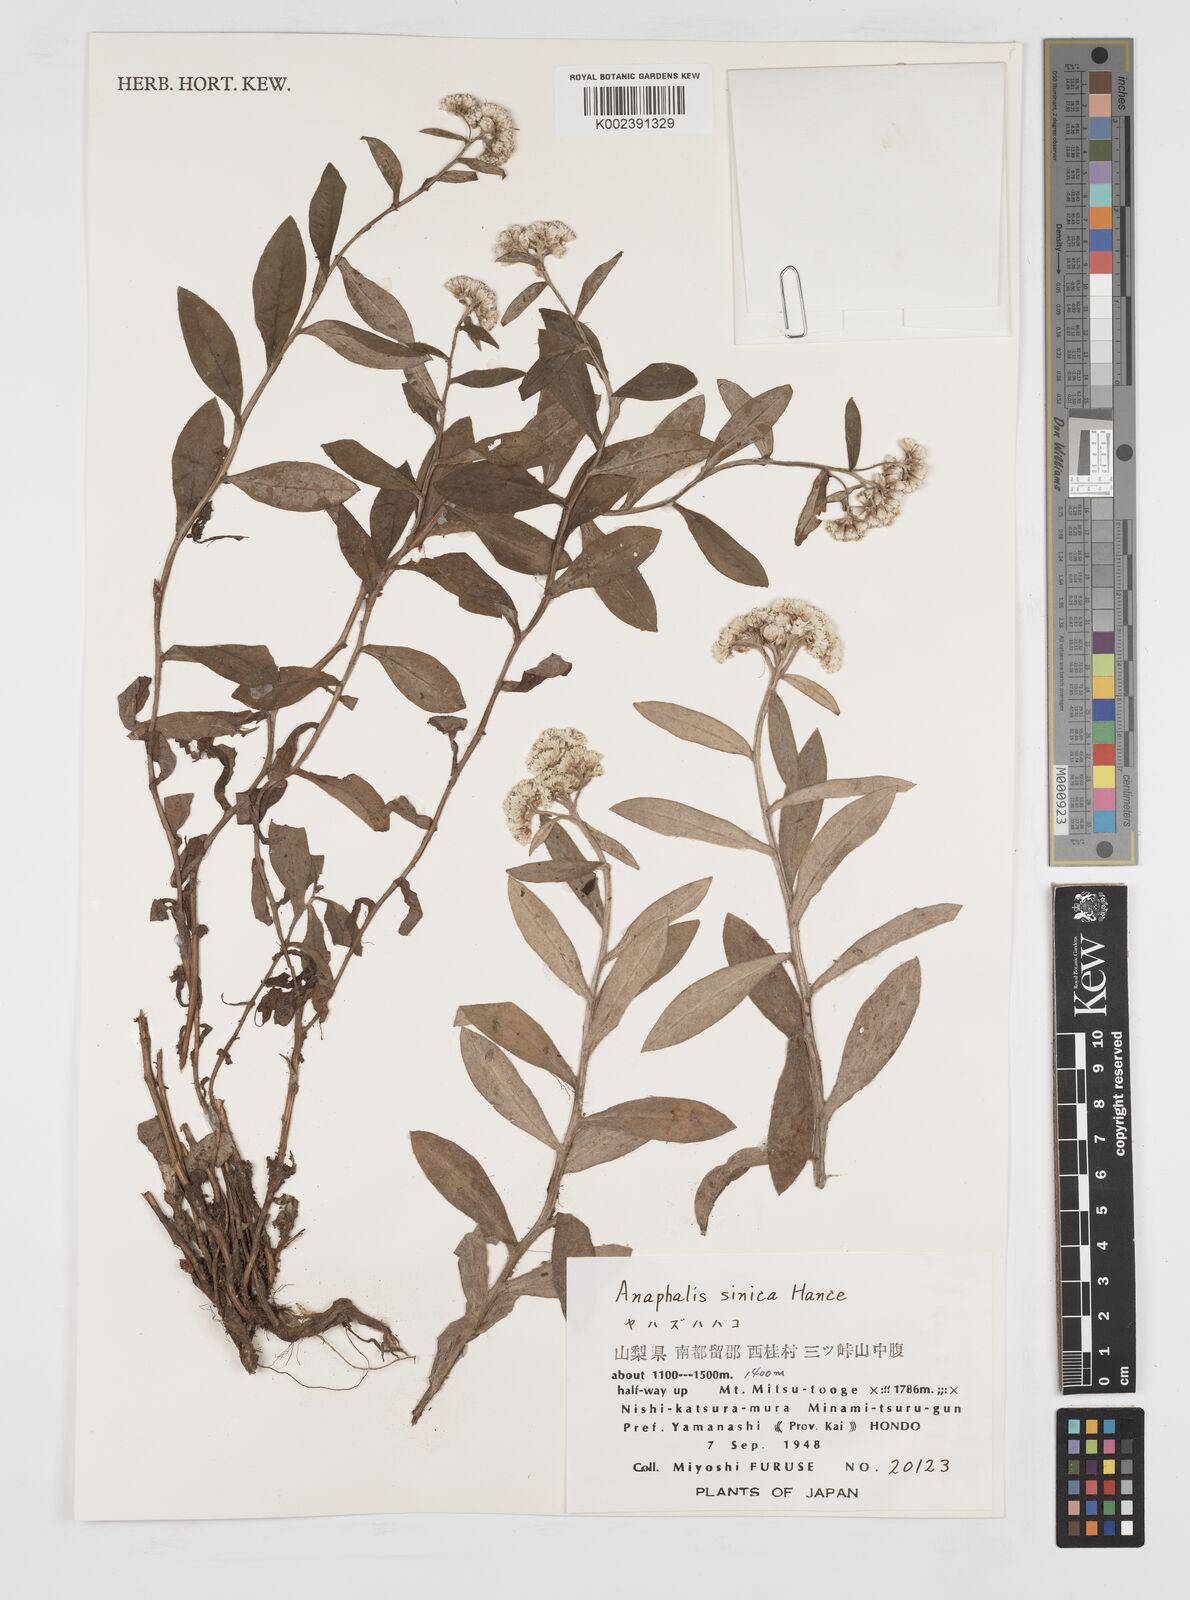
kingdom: Plantae
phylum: Tracheophyta
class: Magnoliopsida
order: Asterales
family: Asteraceae
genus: Anaphalis
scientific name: Anaphalis sinica
